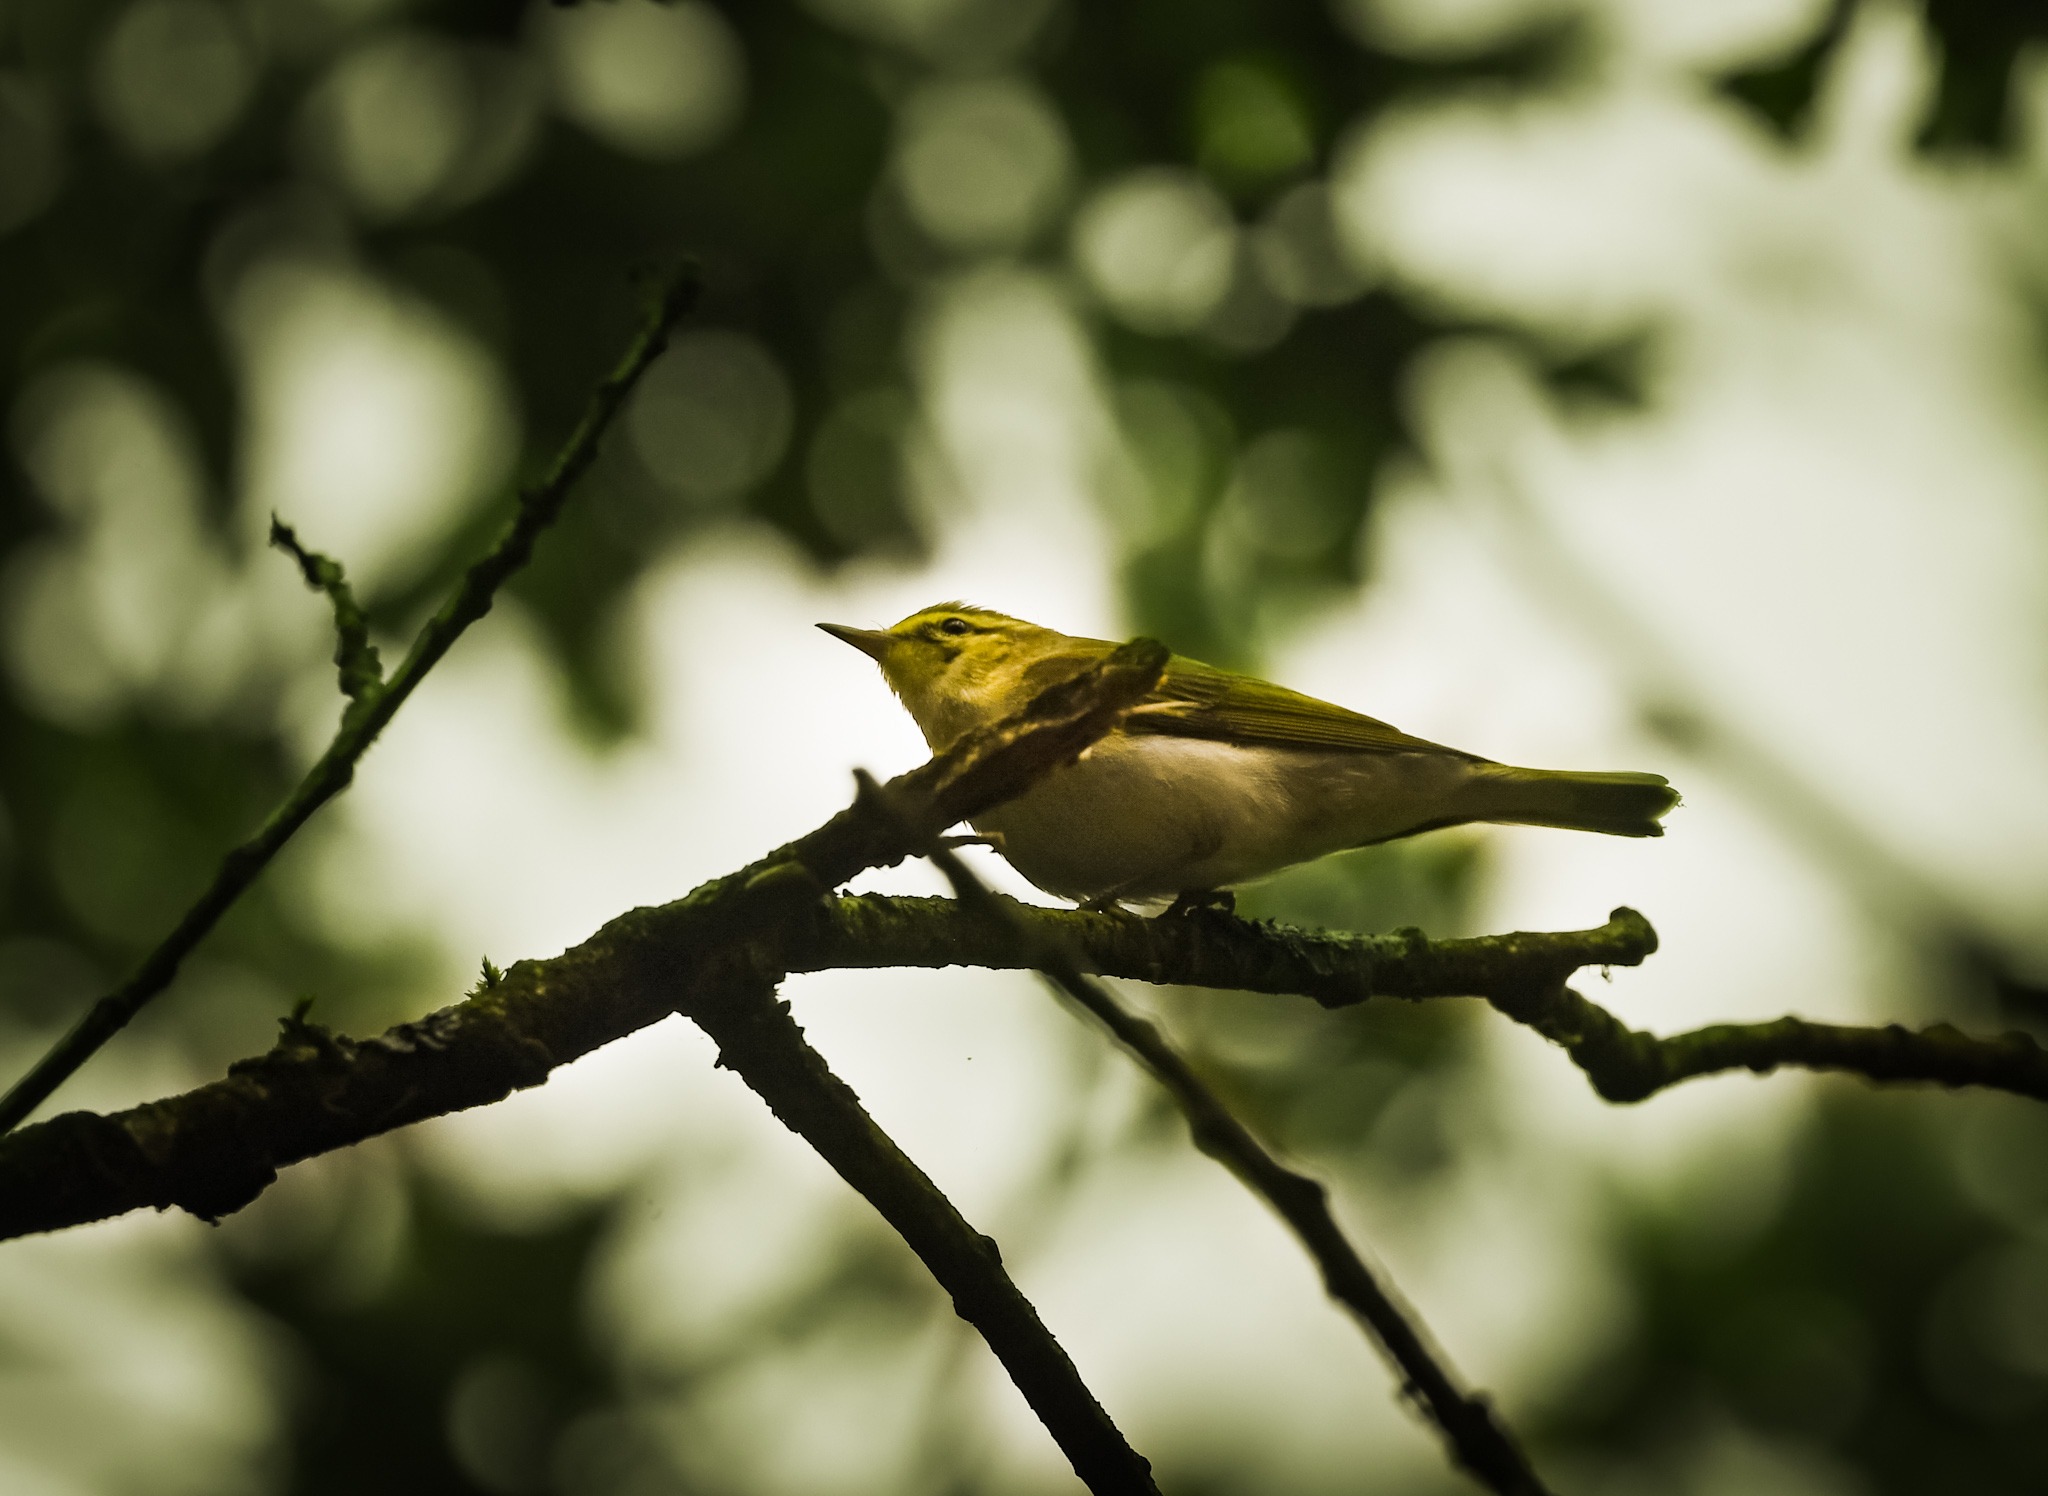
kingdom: Animalia
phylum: Chordata
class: Aves
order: Passeriformes
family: Phylloscopidae
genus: Phylloscopus
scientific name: Phylloscopus sibillatrix
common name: Skovsanger
